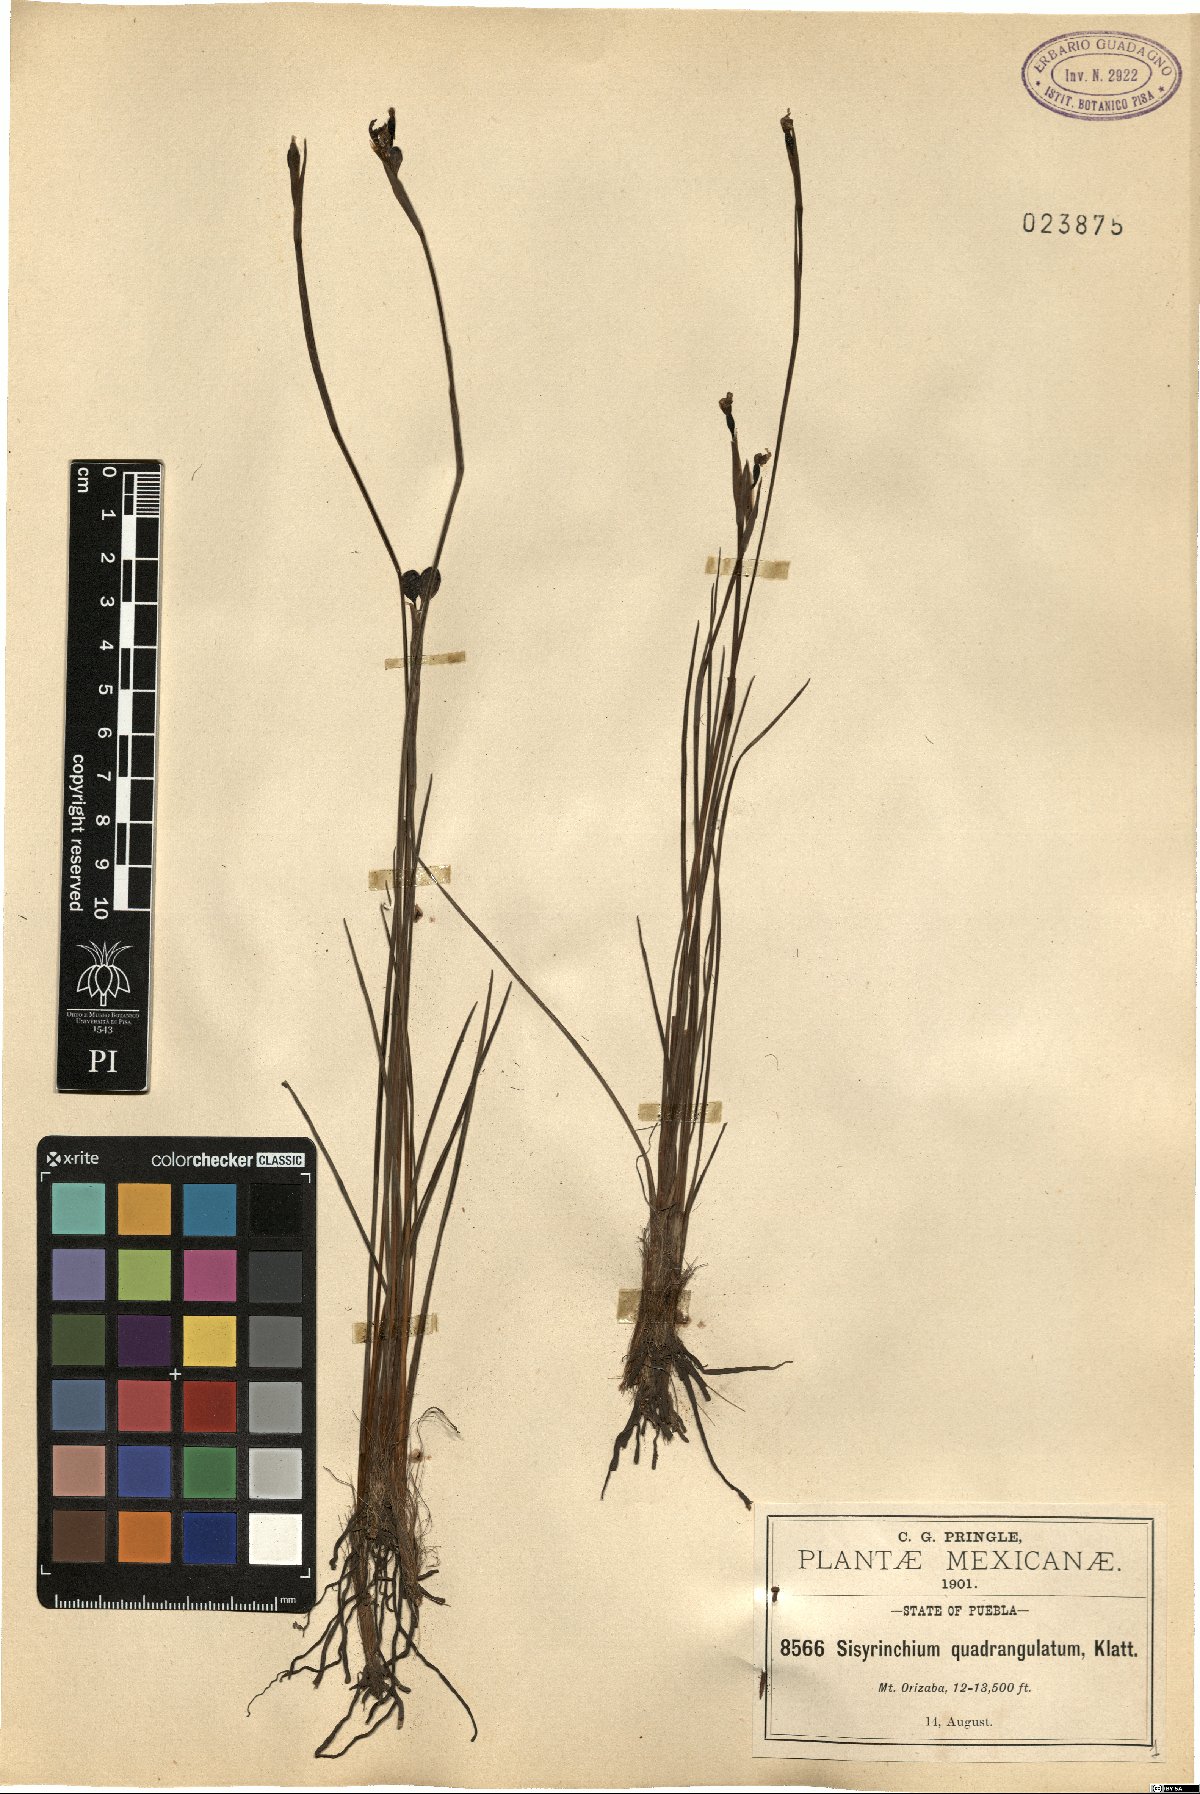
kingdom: Plantae
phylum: Tracheophyta
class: Liliopsida
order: Asparagales
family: Iridaceae
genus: Sisyrinchium
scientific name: Sisyrinchium quadrangulatum
